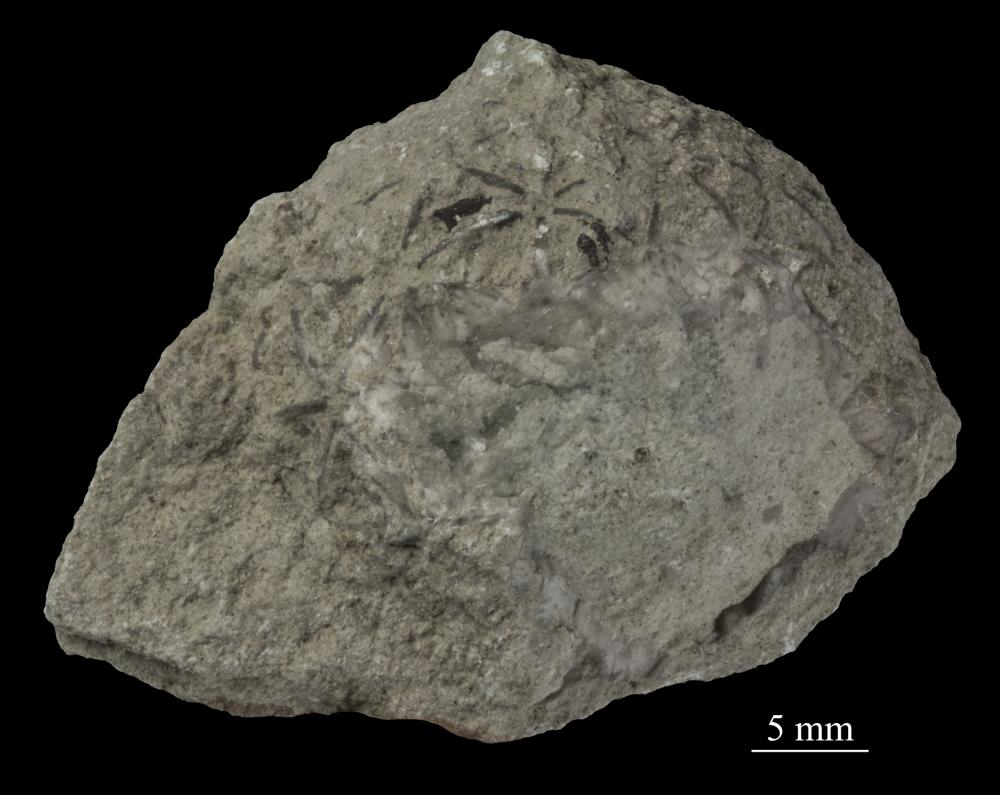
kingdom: Animalia
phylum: Echinodermata
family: Caryocystitidae
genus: Heliocrinites
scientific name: Heliocrinites Echinosphaerites balticus
